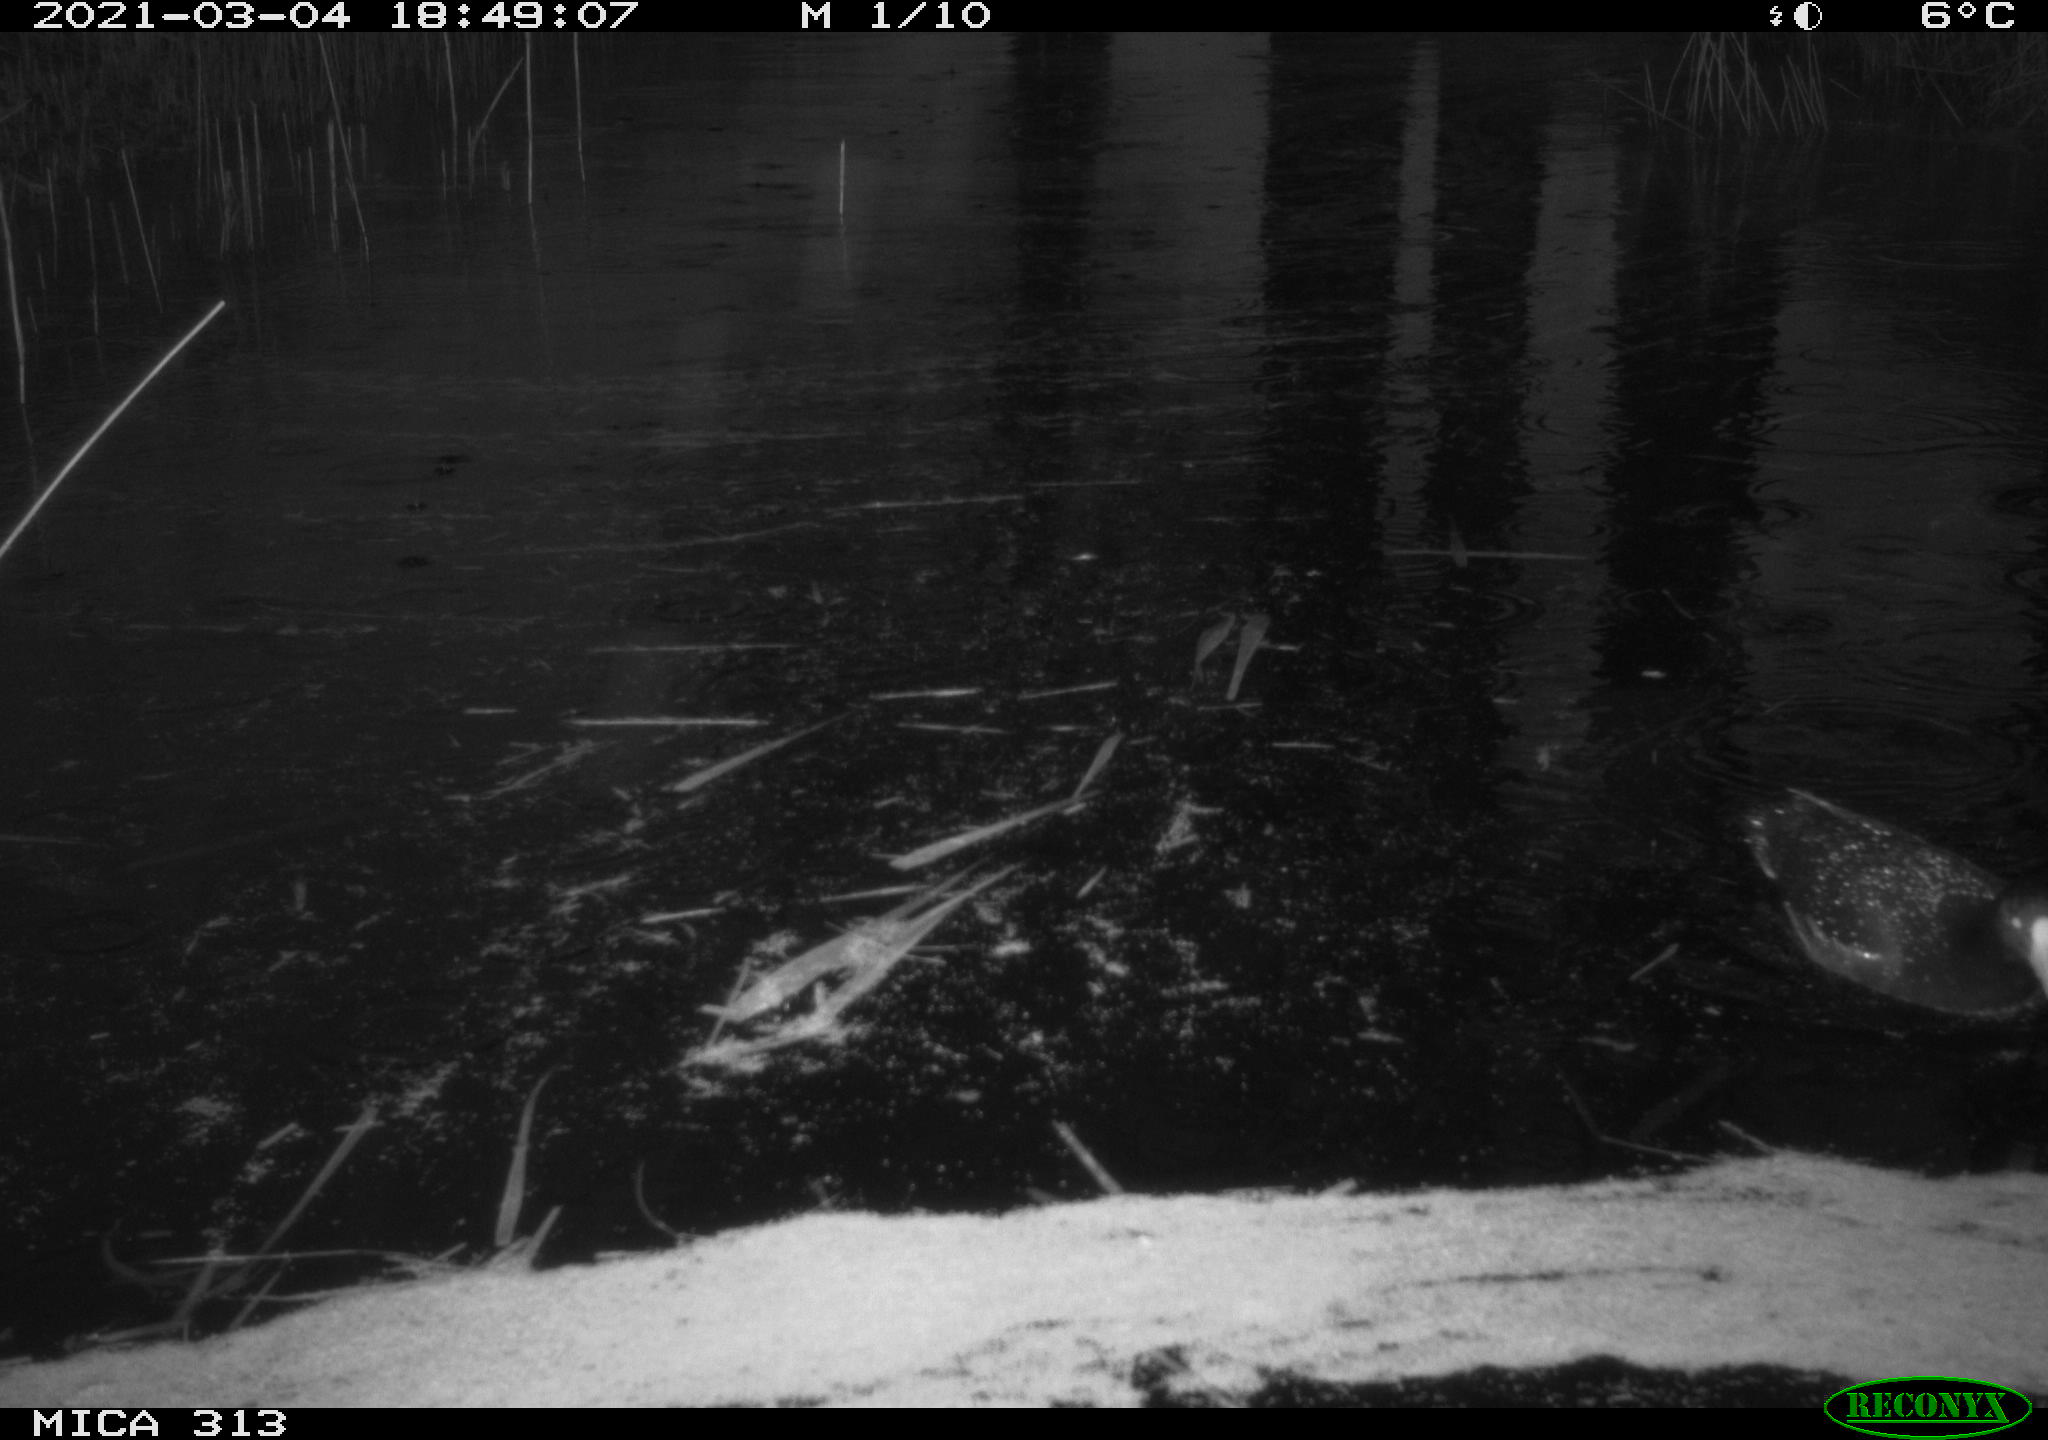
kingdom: Animalia
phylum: Chordata
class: Aves
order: Gruiformes
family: Rallidae
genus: Gallinula
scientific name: Gallinula chloropus
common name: Common moorhen
